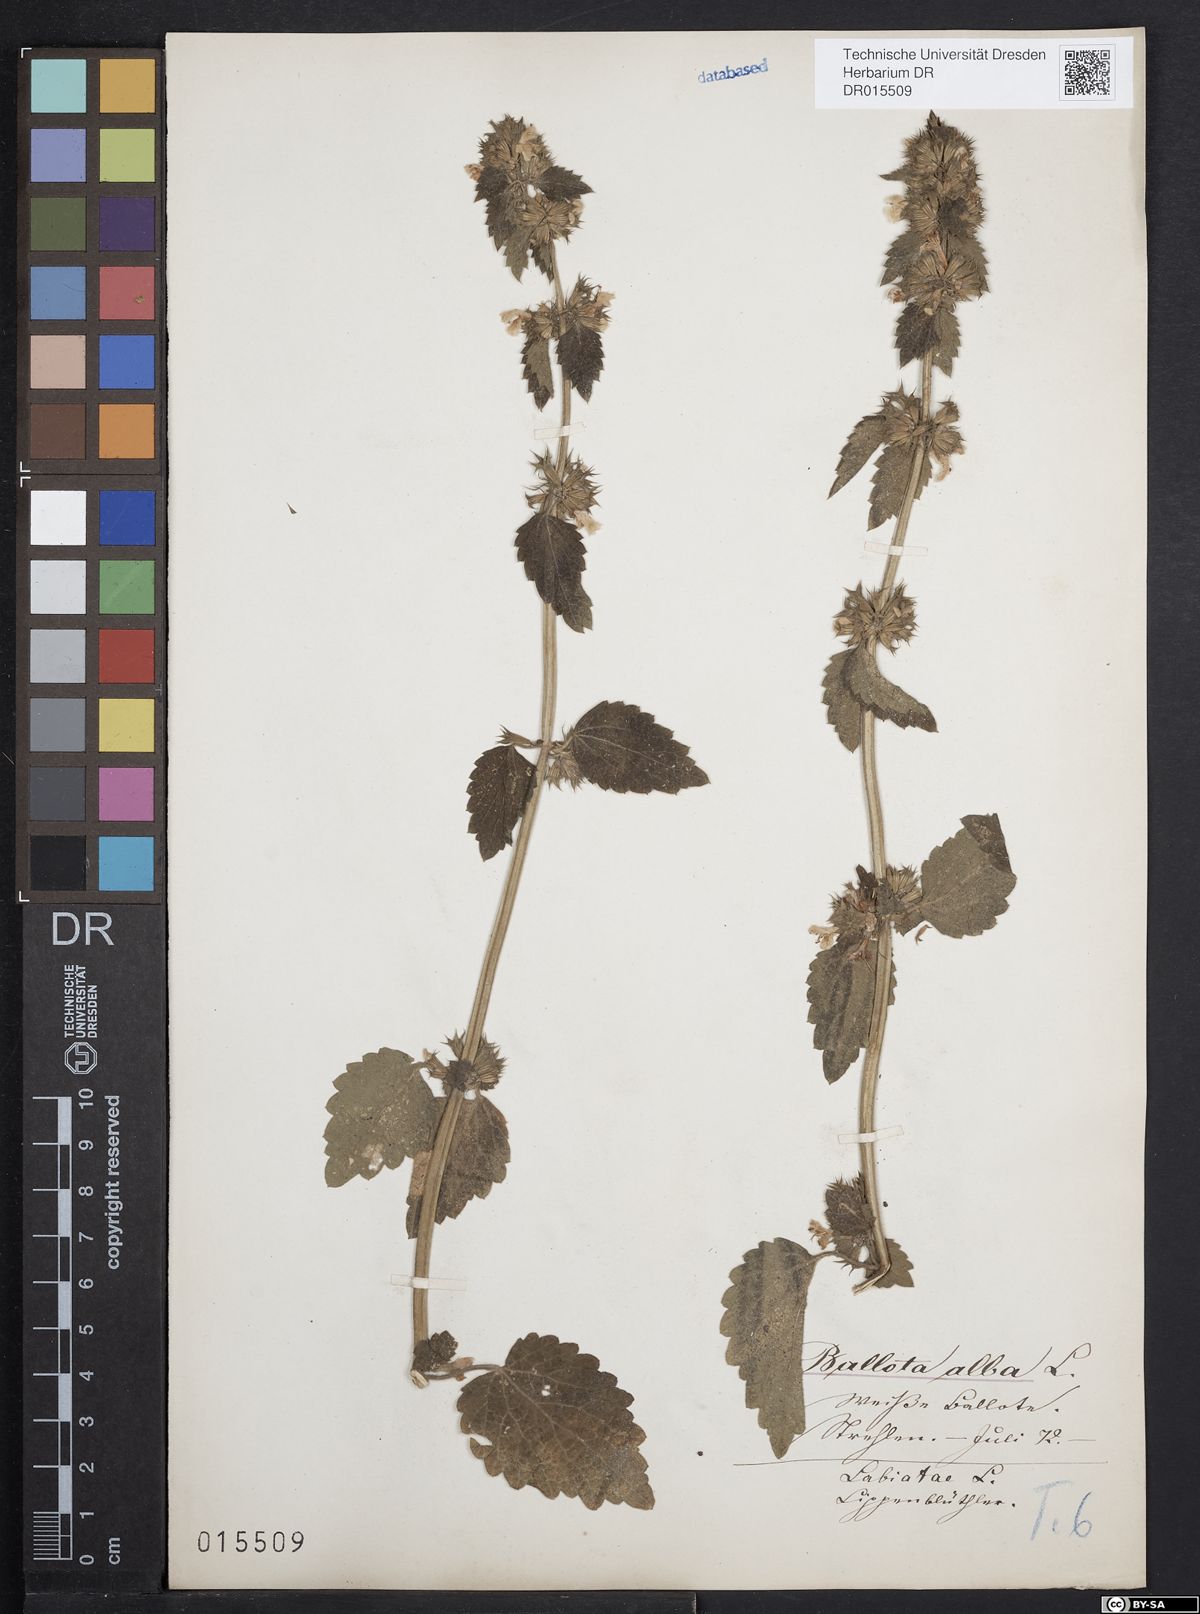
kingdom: Plantae
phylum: Tracheophyta
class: Magnoliopsida
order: Lamiales
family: Lamiaceae
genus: Ballota
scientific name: Ballota nigra
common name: Black horehound
